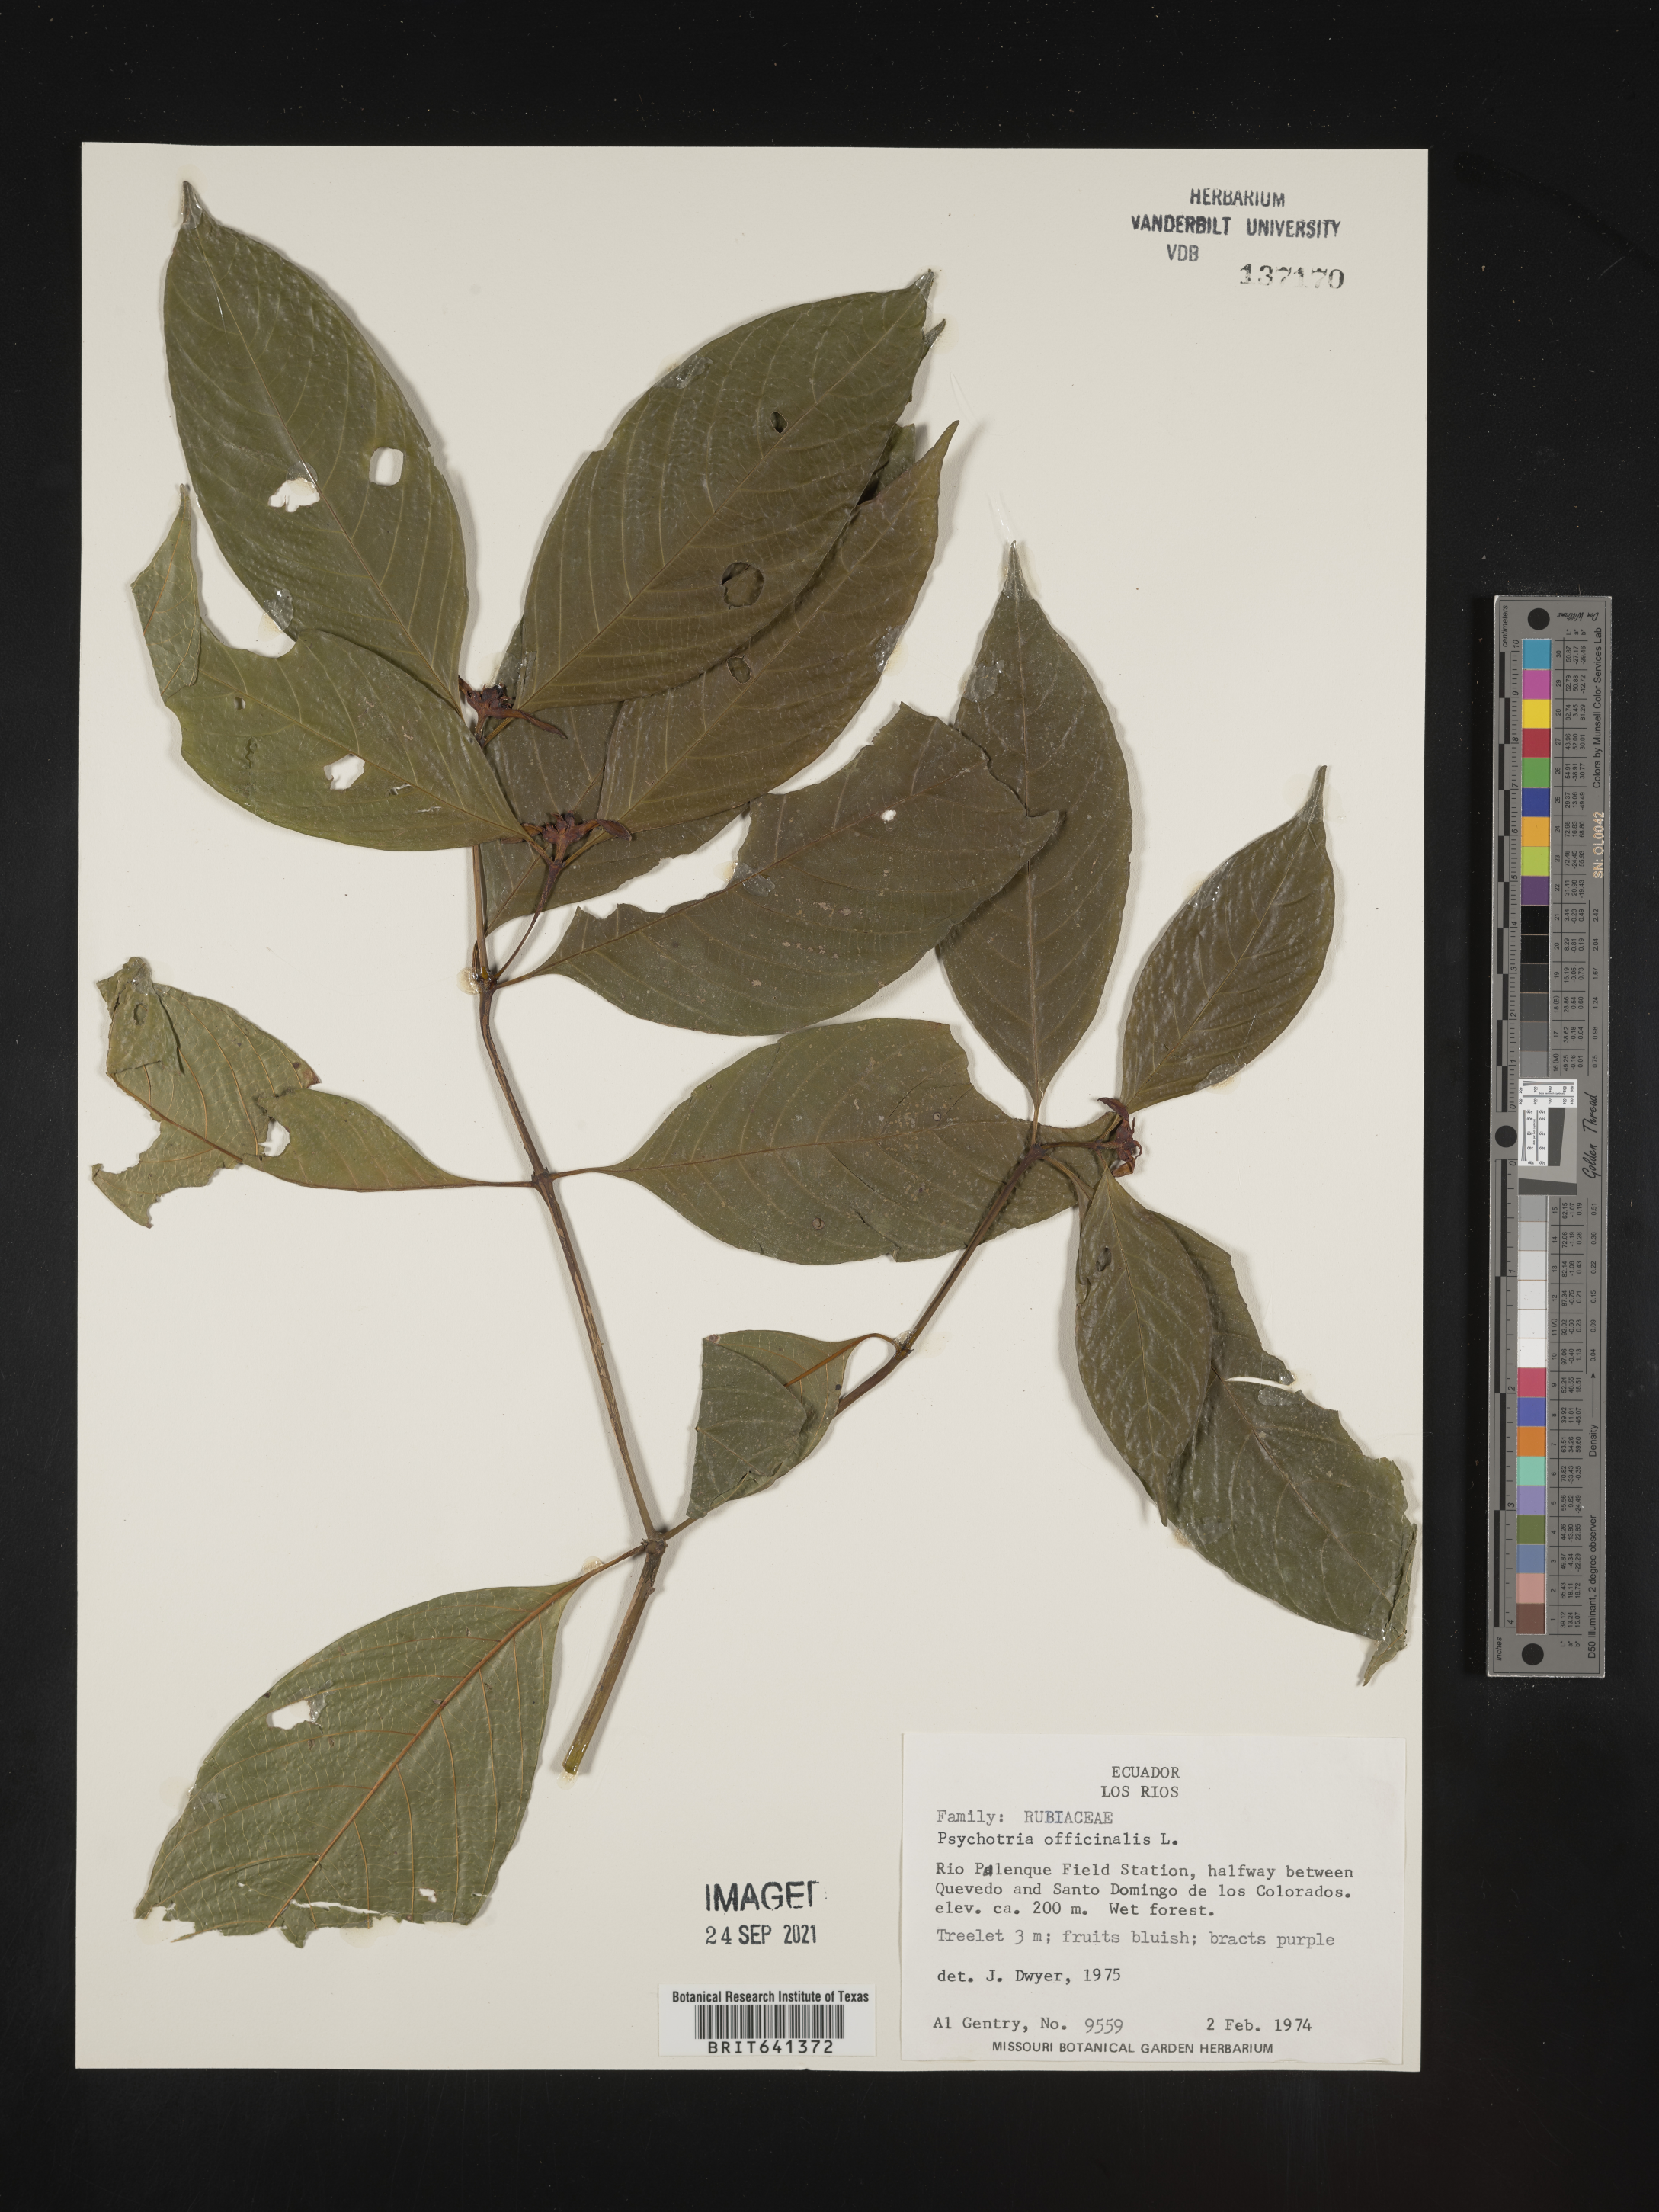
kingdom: Plantae
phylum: Tracheophyta
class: Magnoliopsida
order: Gentianales
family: Rubiaceae
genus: Psychotria
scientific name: Psychotria
